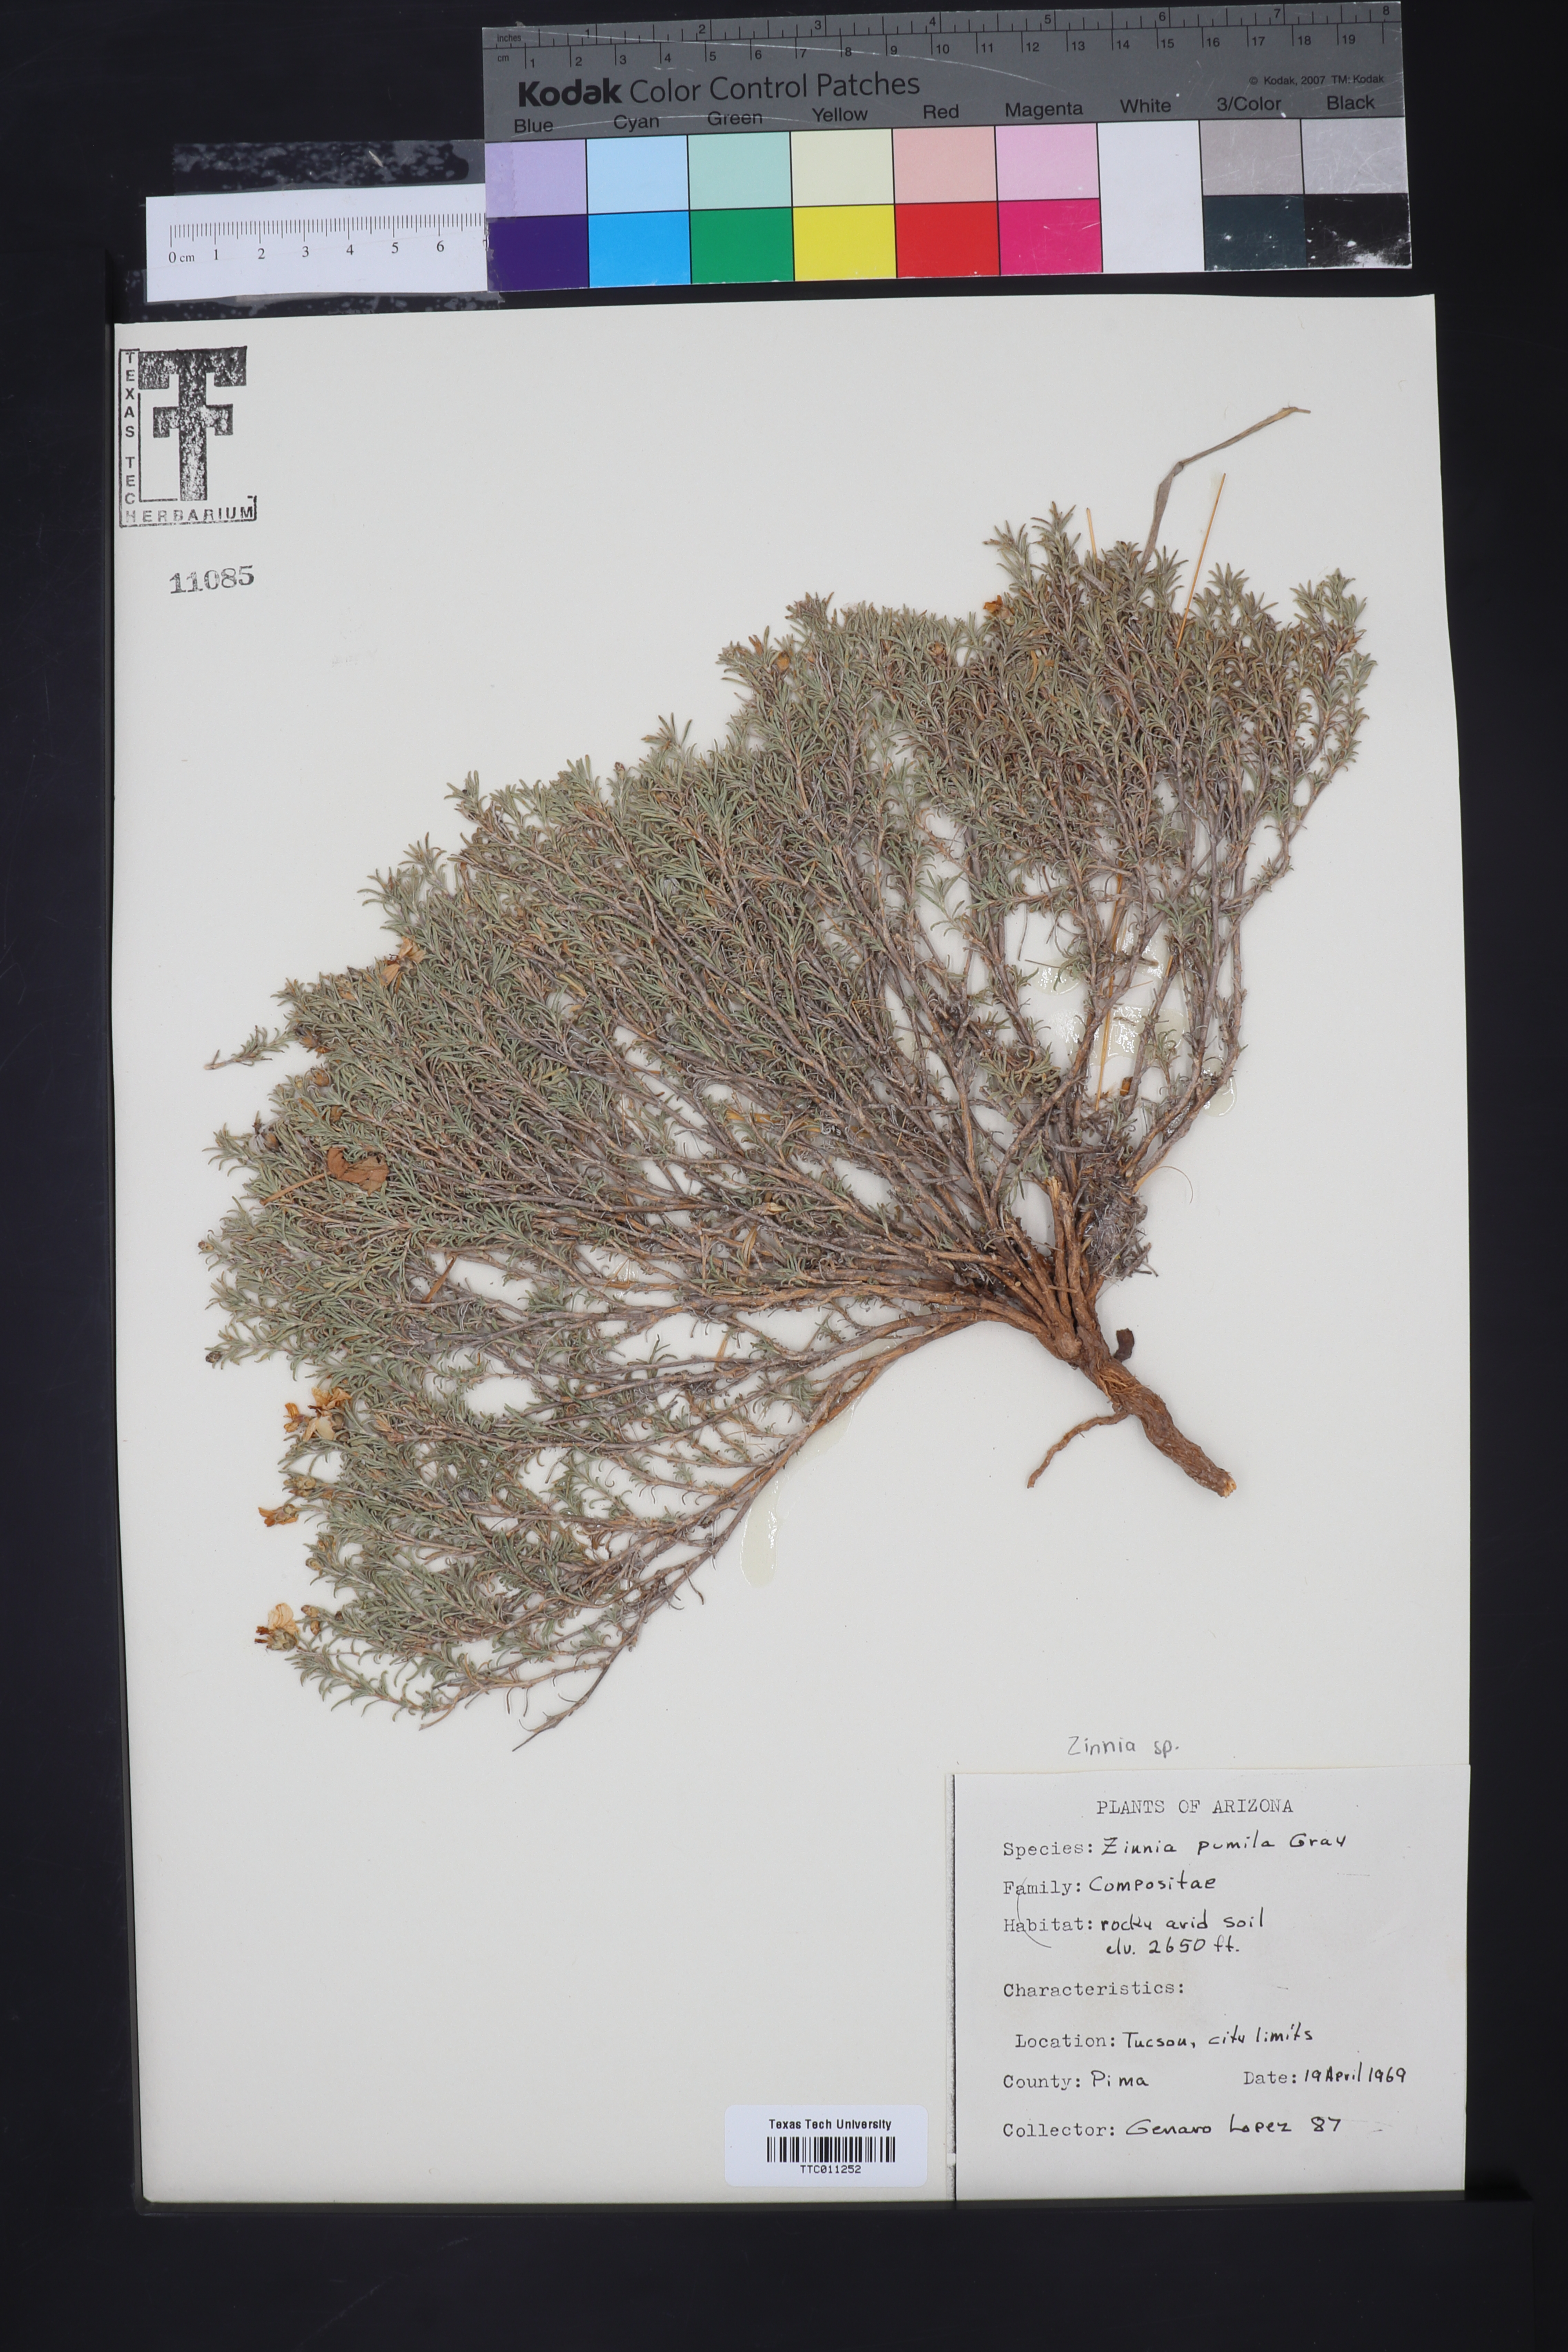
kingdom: Plantae
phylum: Tracheophyta
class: Magnoliopsida
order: Asterales
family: Asteraceae
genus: Zinnia
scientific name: Zinnia acerosa
